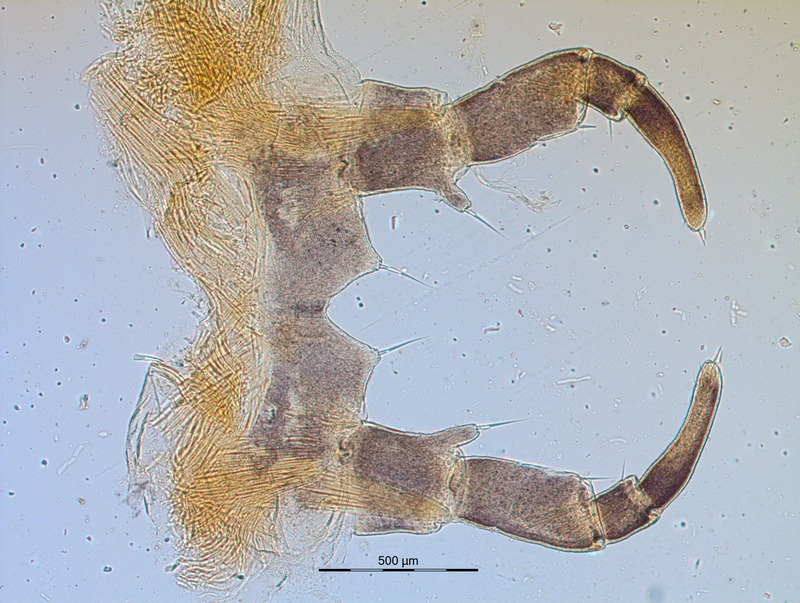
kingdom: Animalia
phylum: Arthropoda
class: Diplopoda
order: Glomerida
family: Glomeridae
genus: Glomeris
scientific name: Glomeris conspersa
